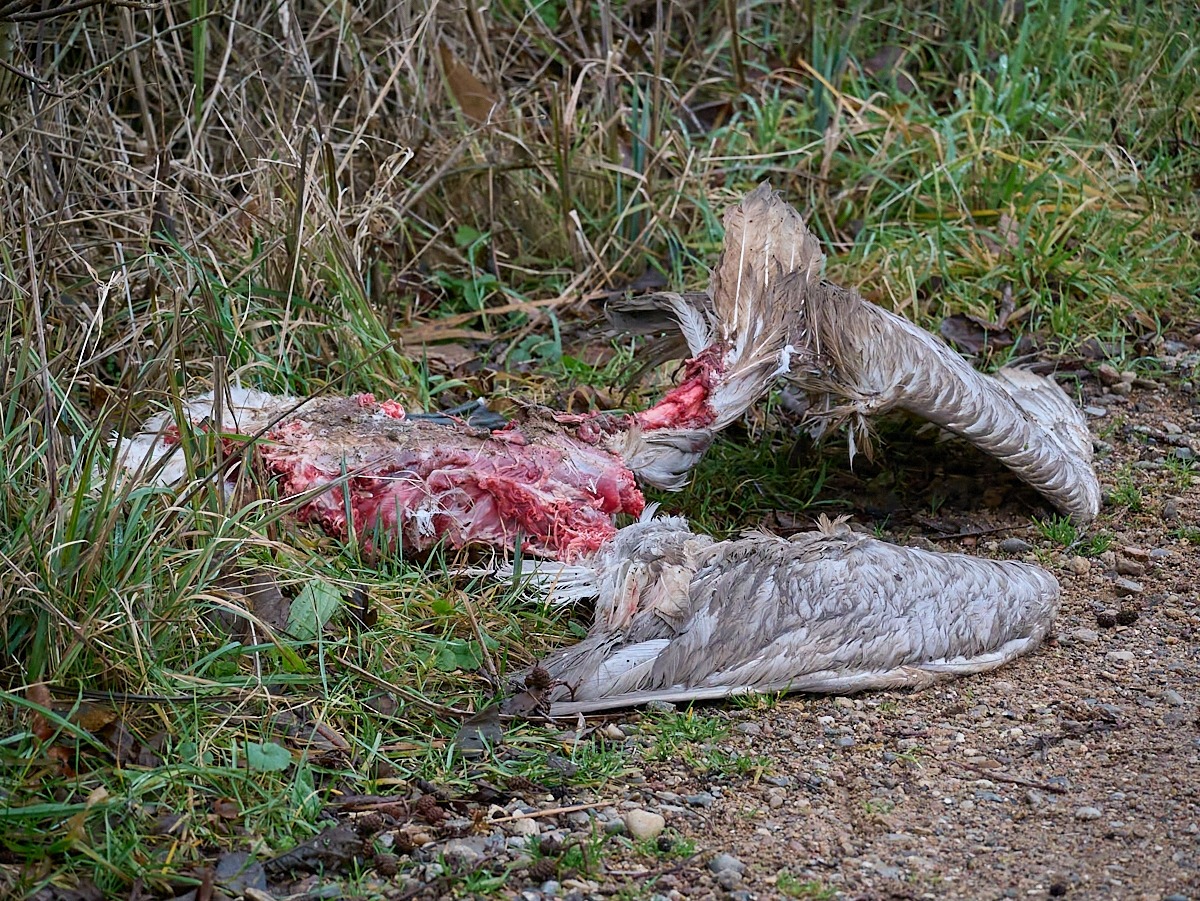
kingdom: Animalia
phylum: Chordata
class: Aves
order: Anseriformes
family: Anatidae
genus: Cygnus
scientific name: Cygnus olor
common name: Knopsvane
